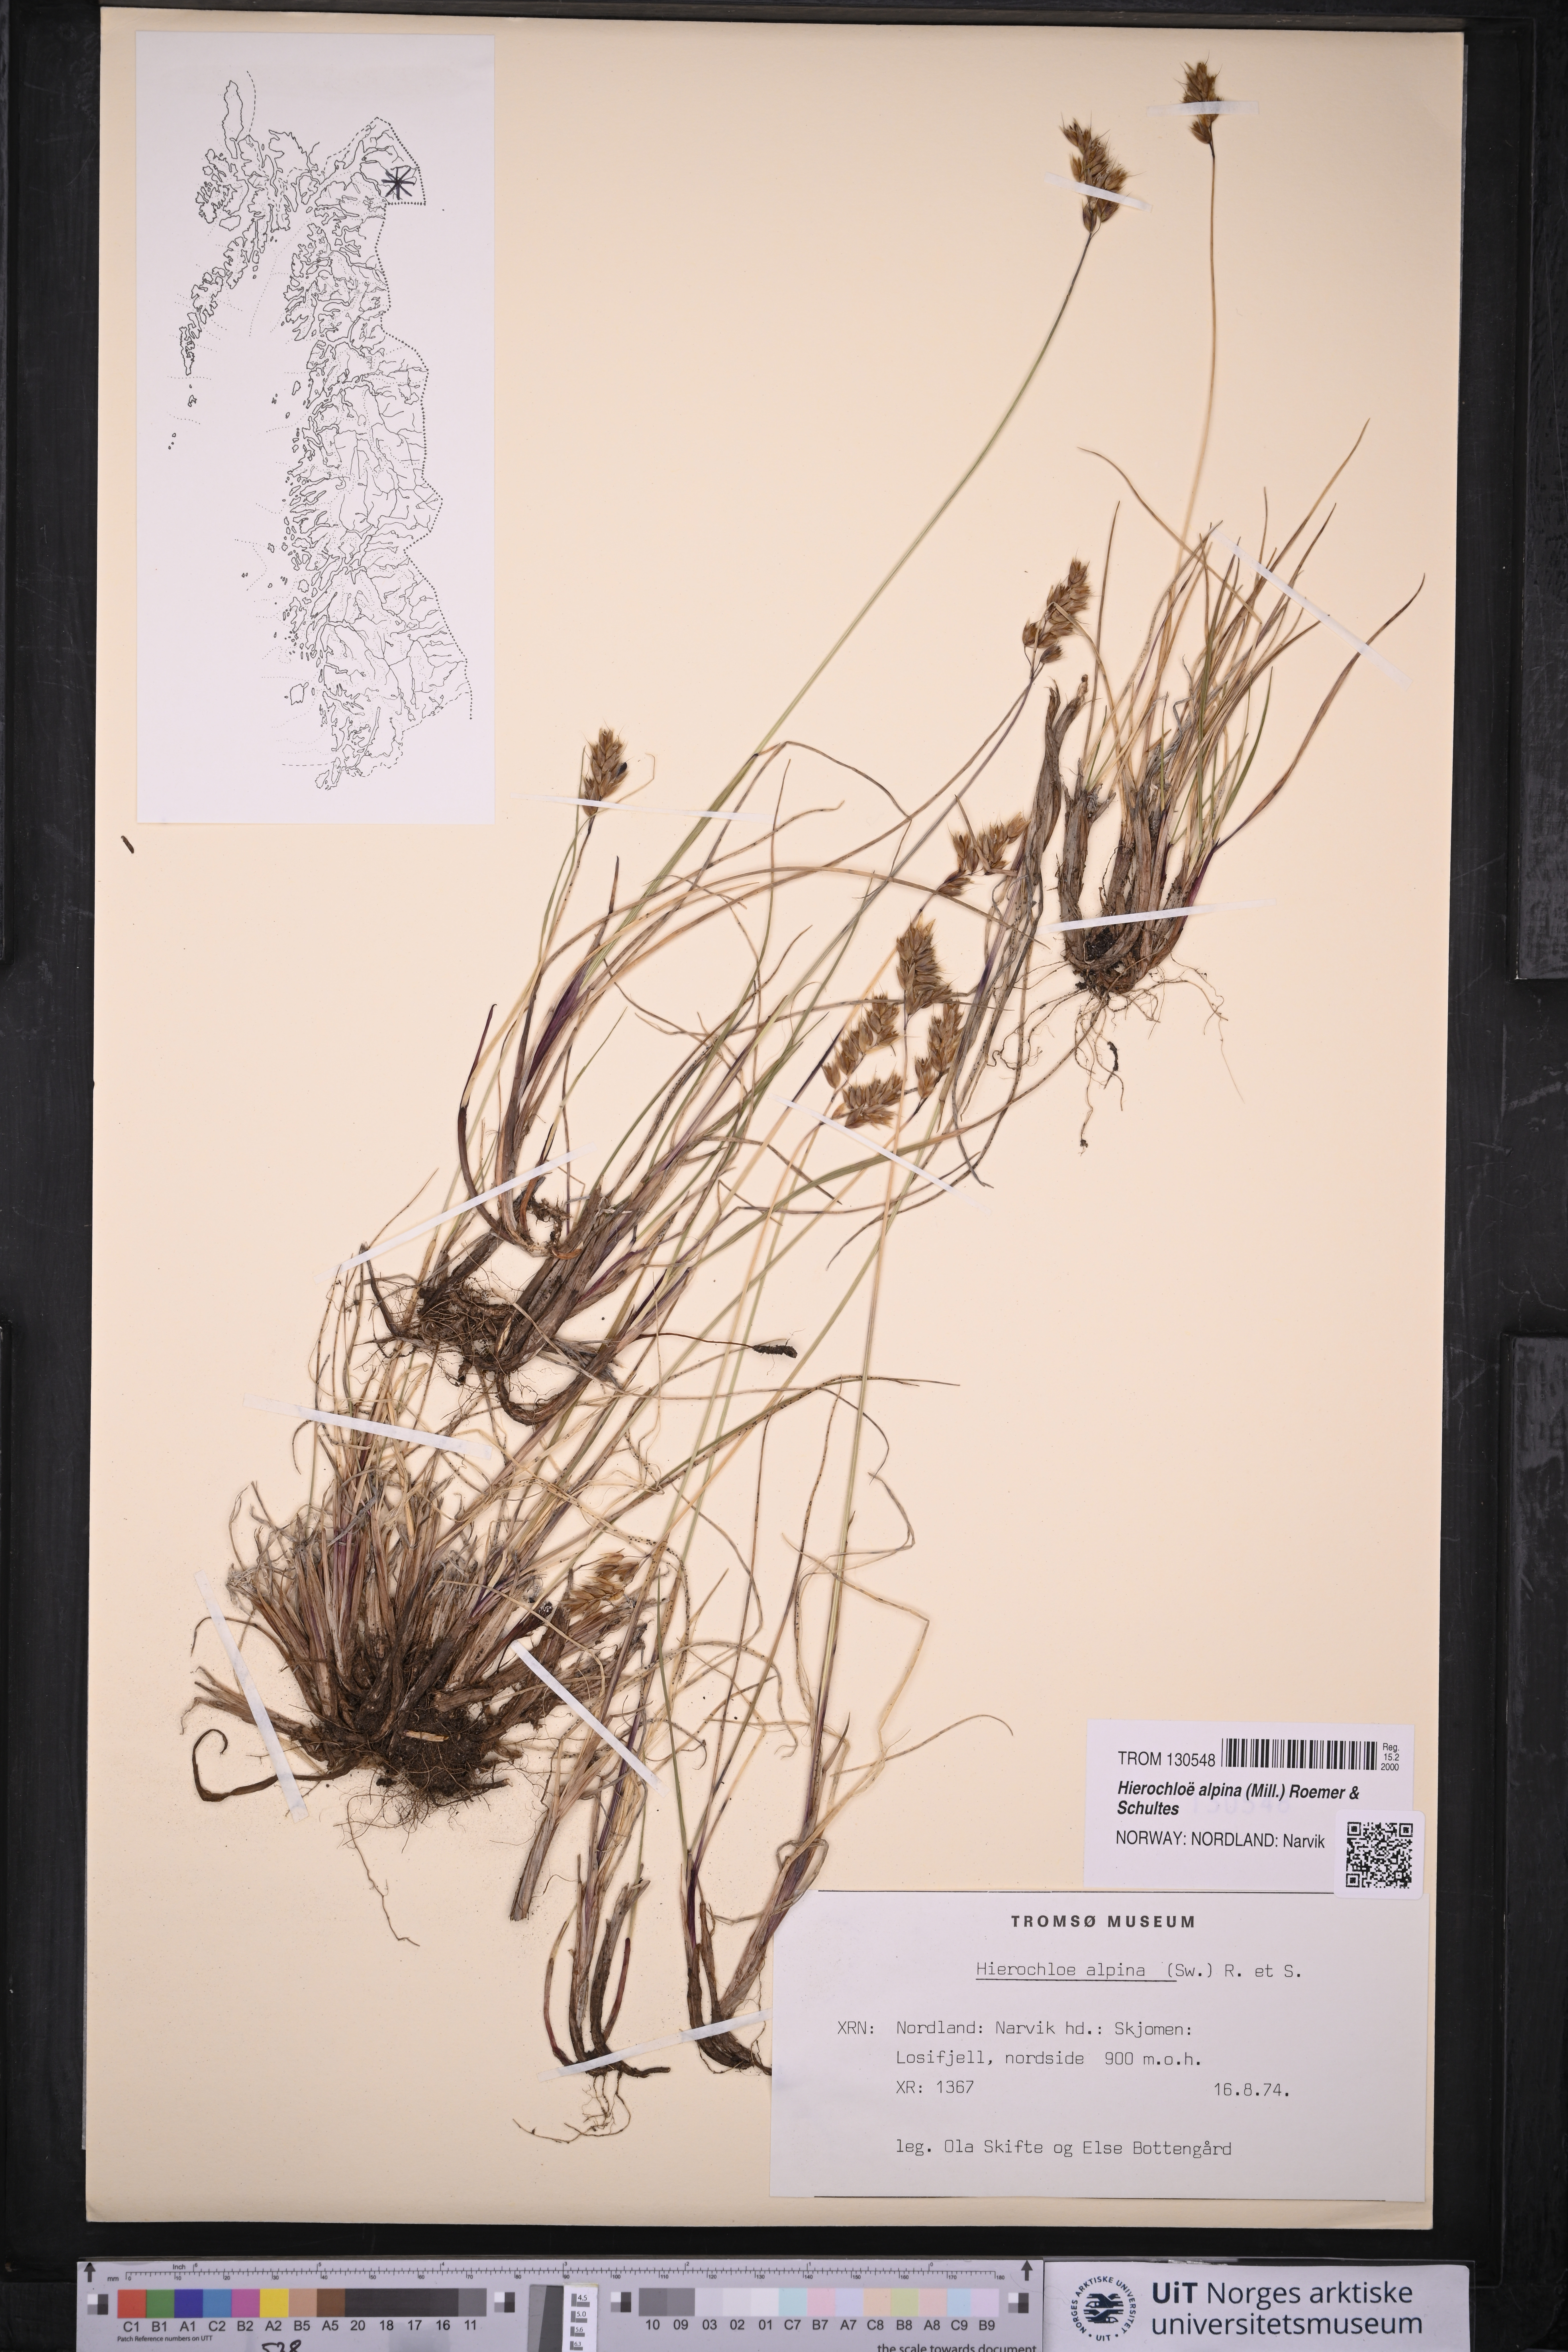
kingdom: Plantae
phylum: Tracheophyta
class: Liliopsida
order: Poales
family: Poaceae
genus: Anthoxanthum
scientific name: Anthoxanthum monticola
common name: Alpine sweetgrass
